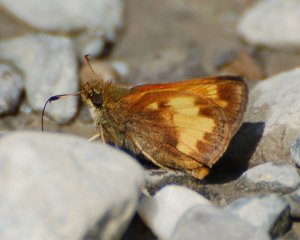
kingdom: Animalia
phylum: Arthropoda
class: Insecta
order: Lepidoptera
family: Hesperiidae
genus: Lon
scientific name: Lon hobomok
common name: Hobomok Skipper
